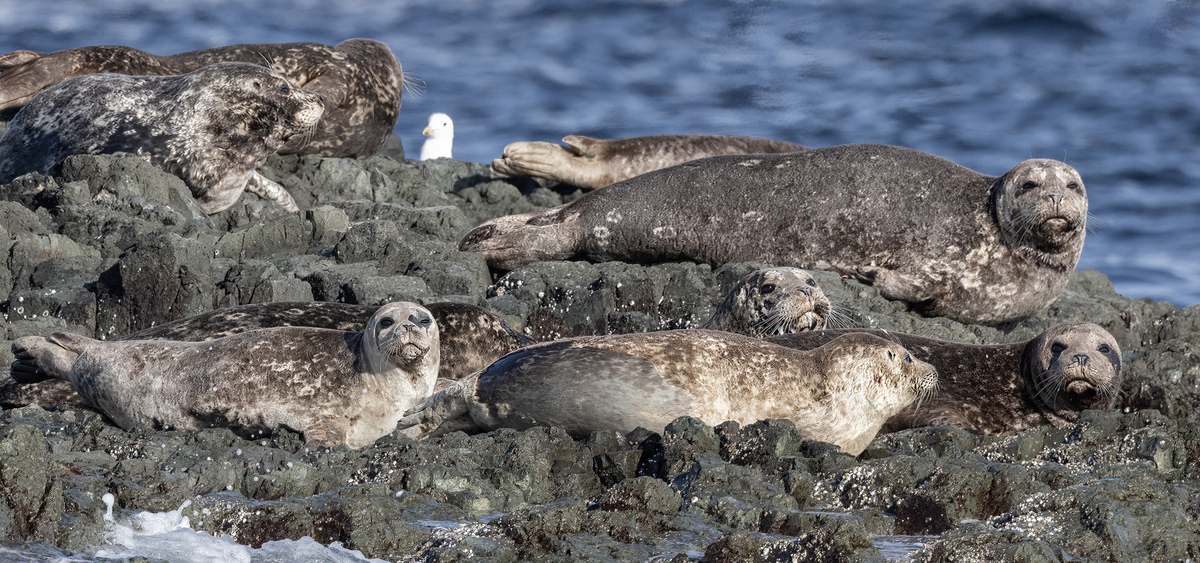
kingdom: Animalia
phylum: Chordata
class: Mammalia
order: Carnivora
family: Phocidae
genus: Phoca
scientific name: Phoca vitulina
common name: Harbor seal
